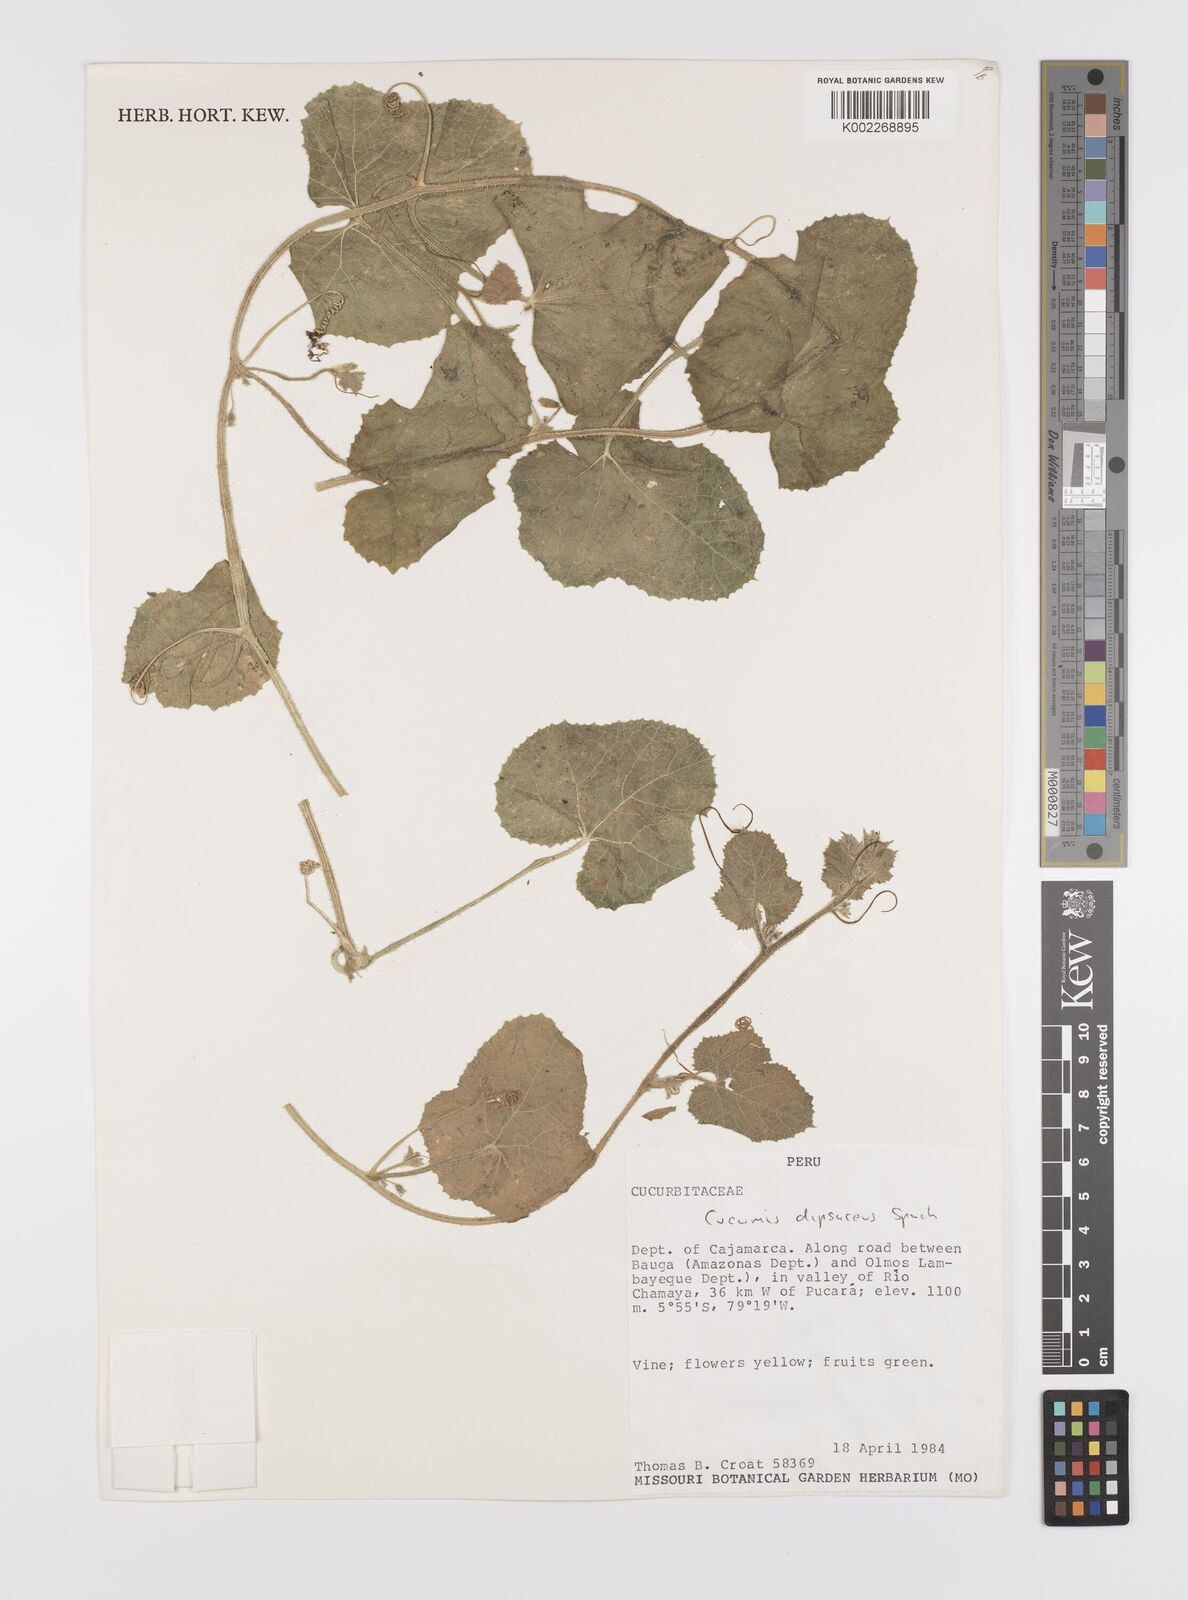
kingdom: Plantae
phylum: Tracheophyta
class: Magnoliopsida
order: Cucurbitales
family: Cucurbitaceae
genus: Cucumis
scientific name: Cucumis
